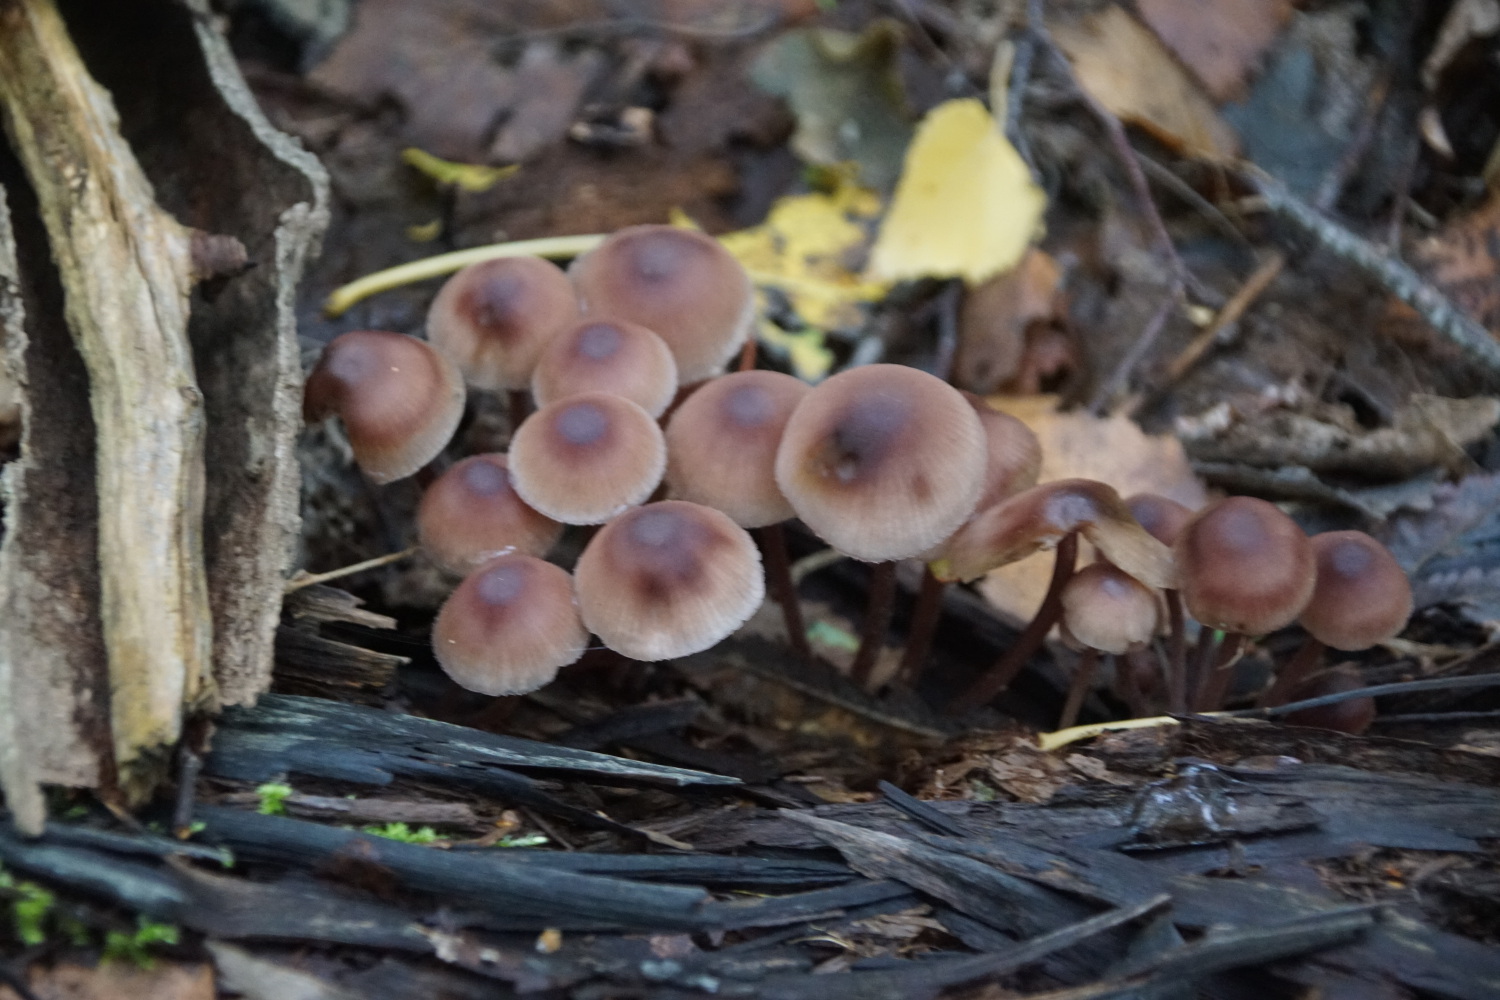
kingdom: Fungi
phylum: Basidiomycota
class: Agaricomycetes
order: Agaricales
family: Mycenaceae
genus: Mycena
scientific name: Mycena haematopus
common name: blødende huesvamp
